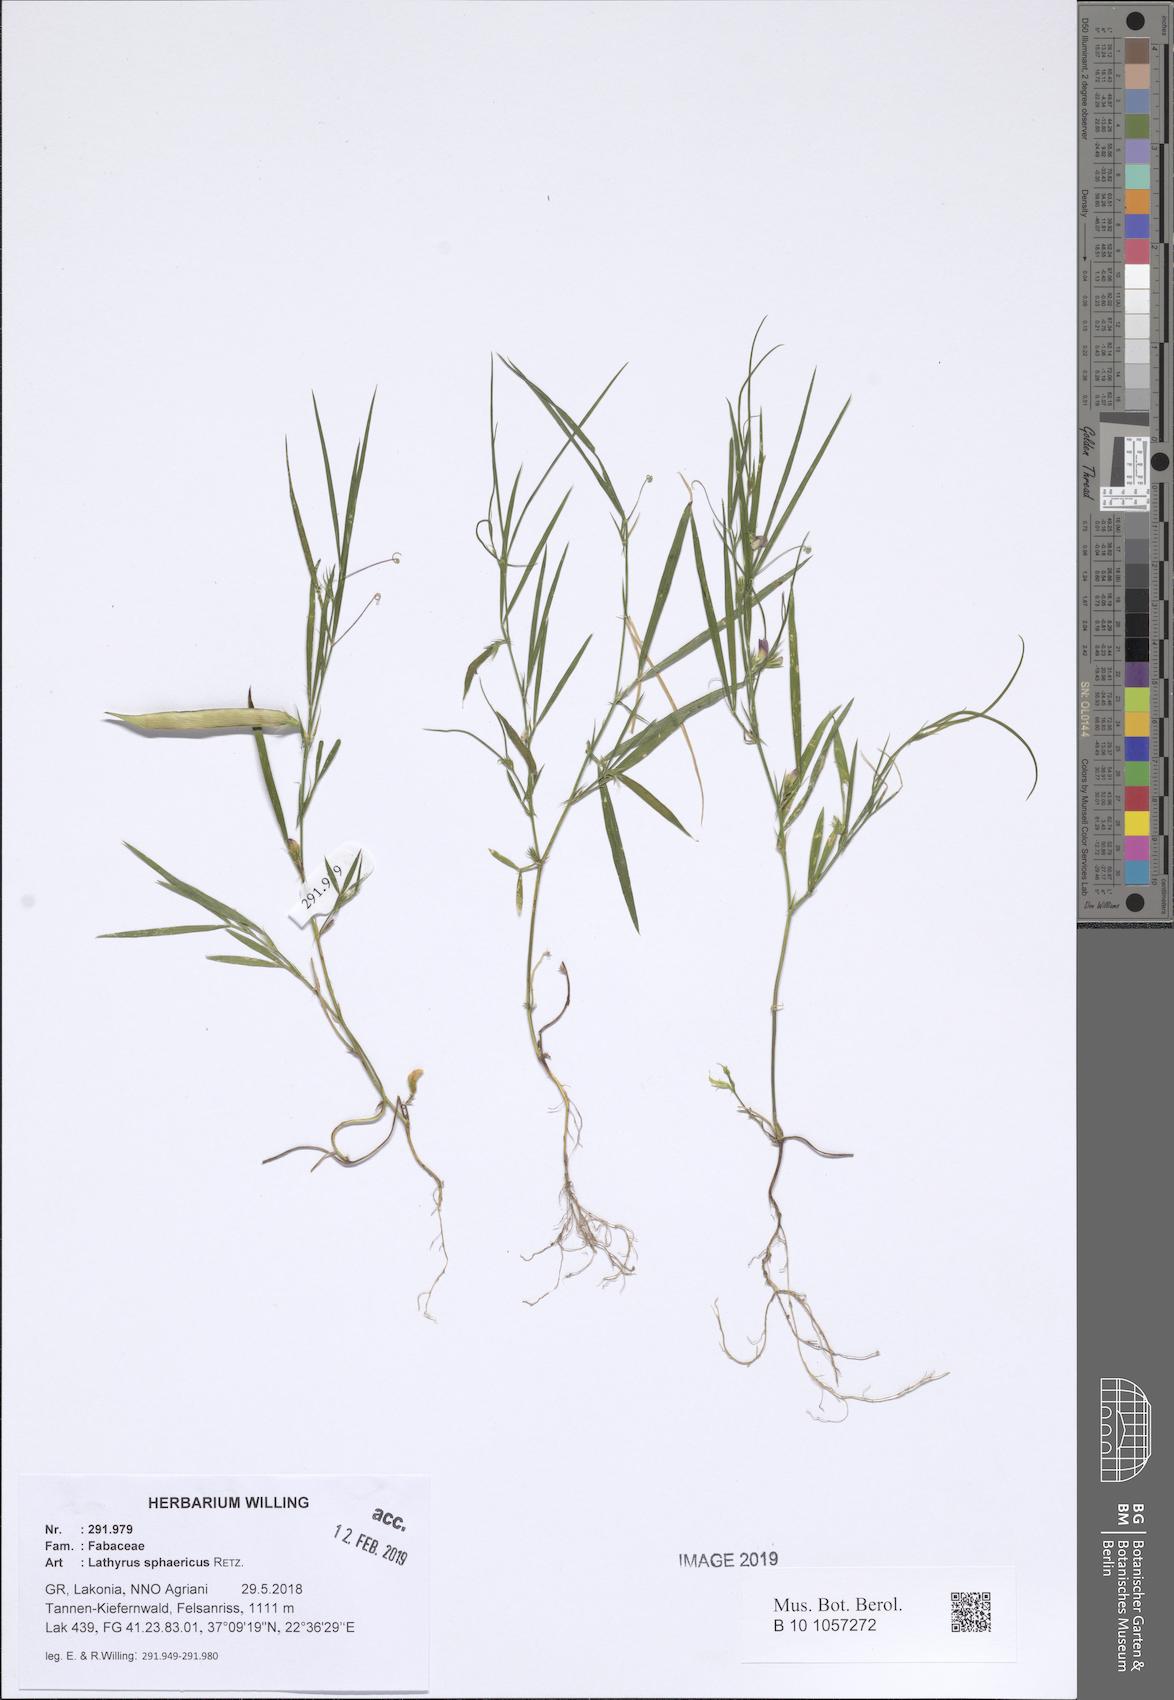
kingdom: Plantae
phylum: Tracheophyta
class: Magnoliopsida
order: Fabales
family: Fabaceae
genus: Lathyrus
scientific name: Lathyrus sphaericus
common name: Grass pea
